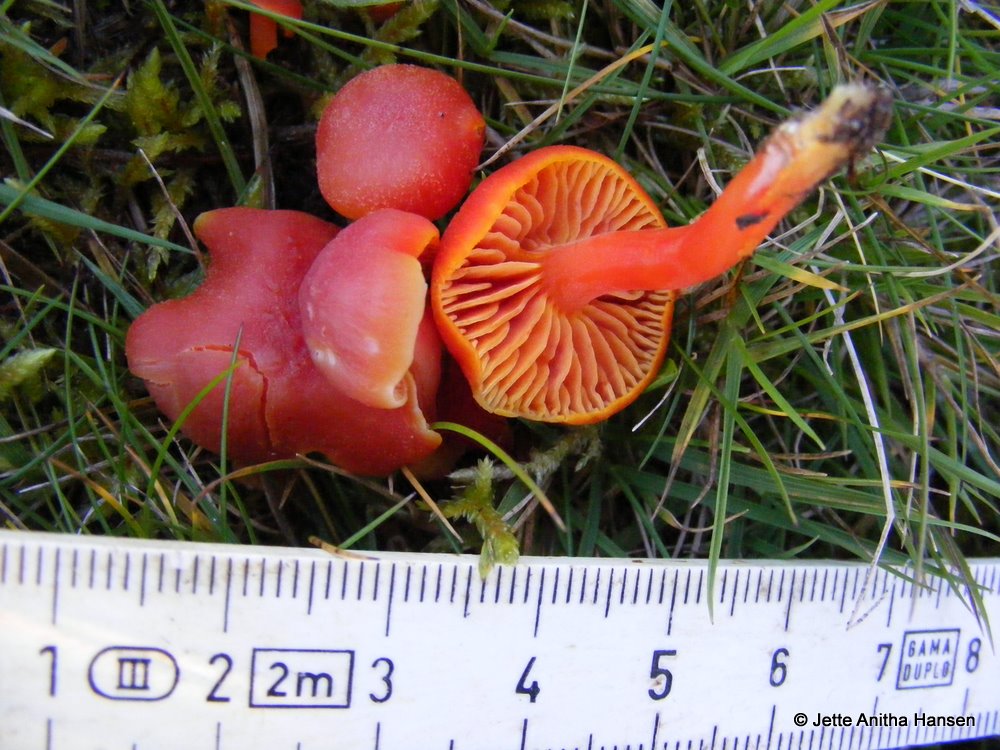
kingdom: Fungi
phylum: Basidiomycota
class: Agaricomycetes
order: Agaricales
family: Hygrophoraceae
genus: Hygrocybe
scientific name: Hygrocybe coccinea
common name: cinnober-vokshat
